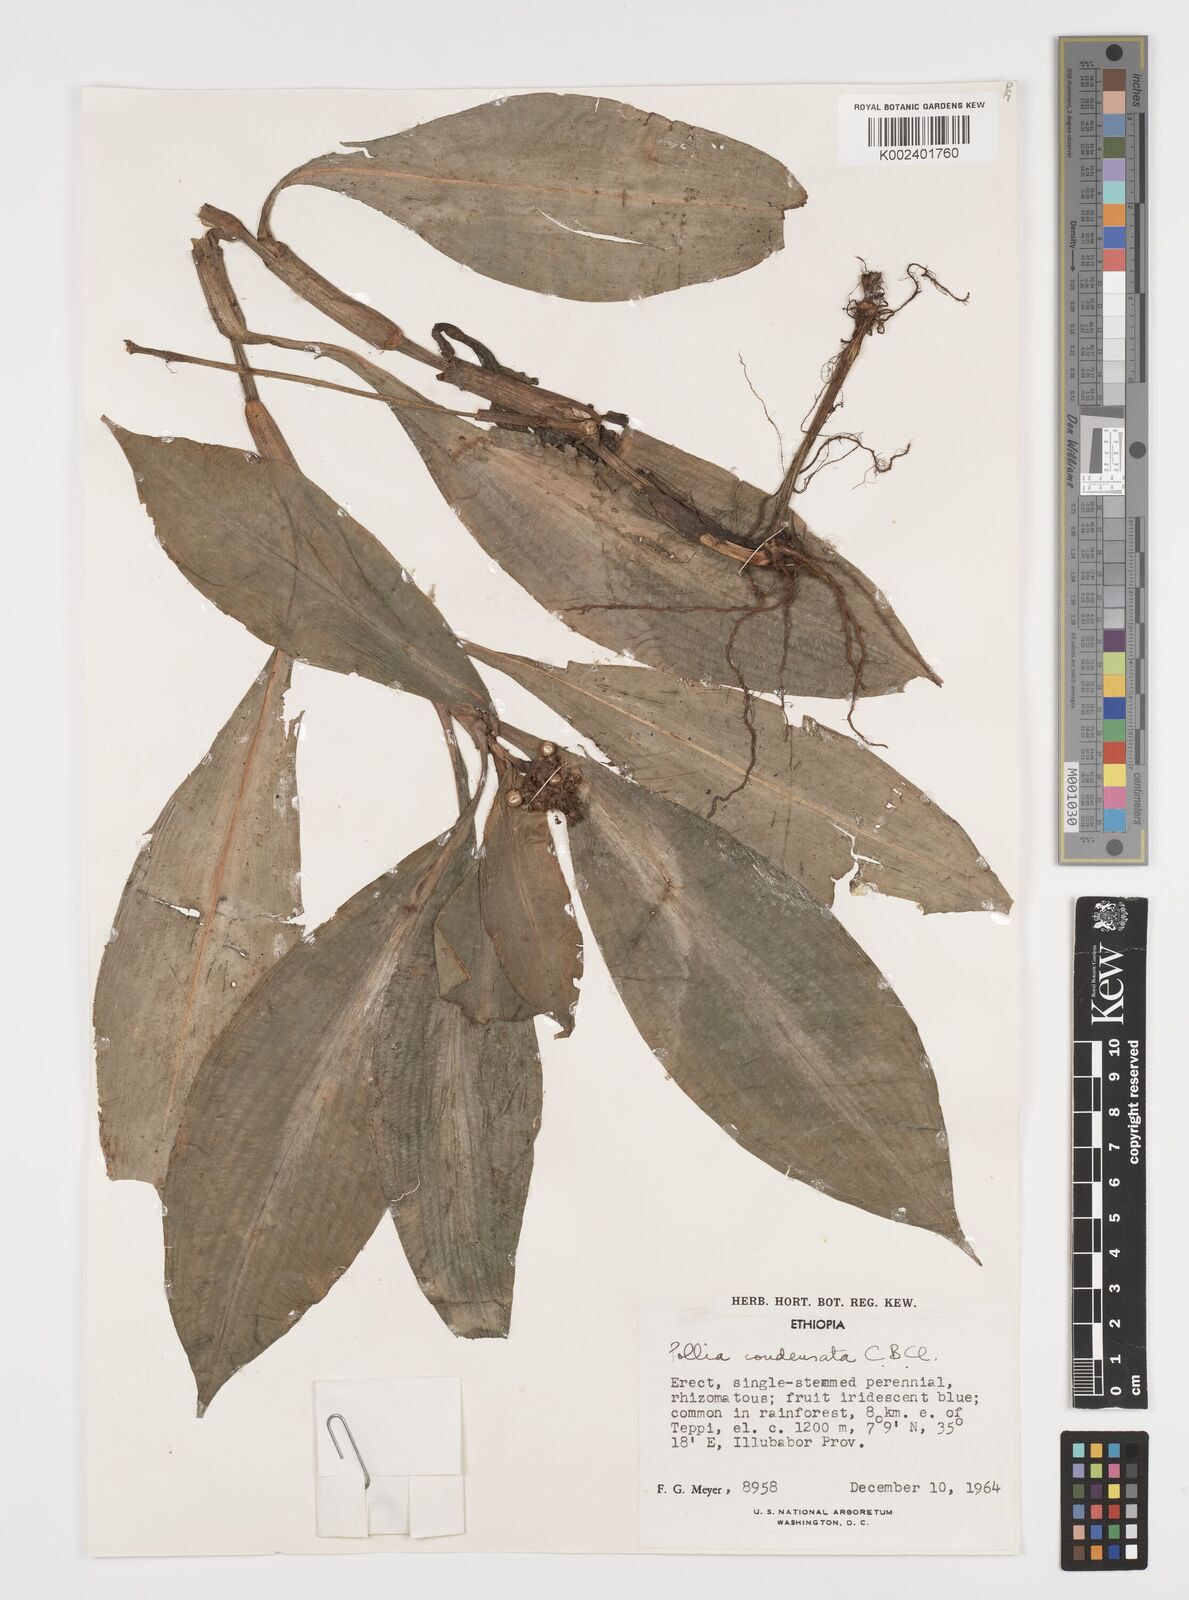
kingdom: Plantae
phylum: Tracheophyta
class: Liliopsida
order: Commelinales
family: Commelinaceae
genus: Pollia
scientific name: Pollia condensata
